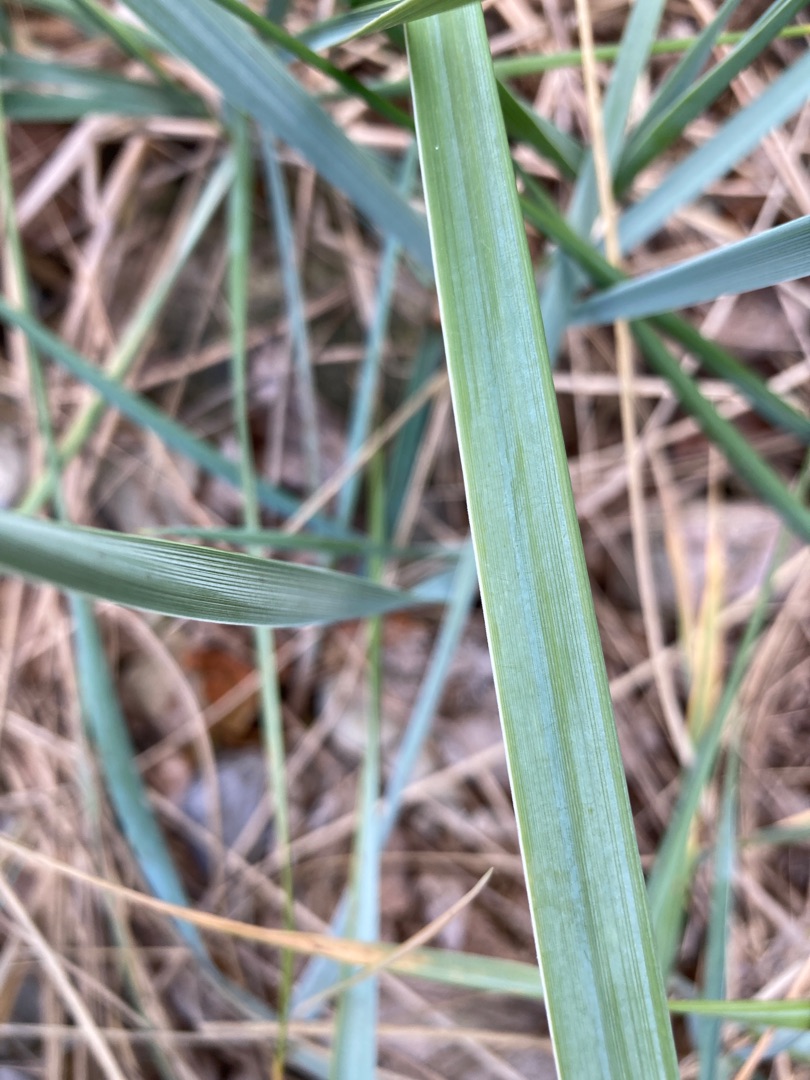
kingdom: Plantae
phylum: Tracheophyta
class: Liliopsida
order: Poales
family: Poaceae
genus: Leymus
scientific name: Leymus arenarius
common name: Marehalm
